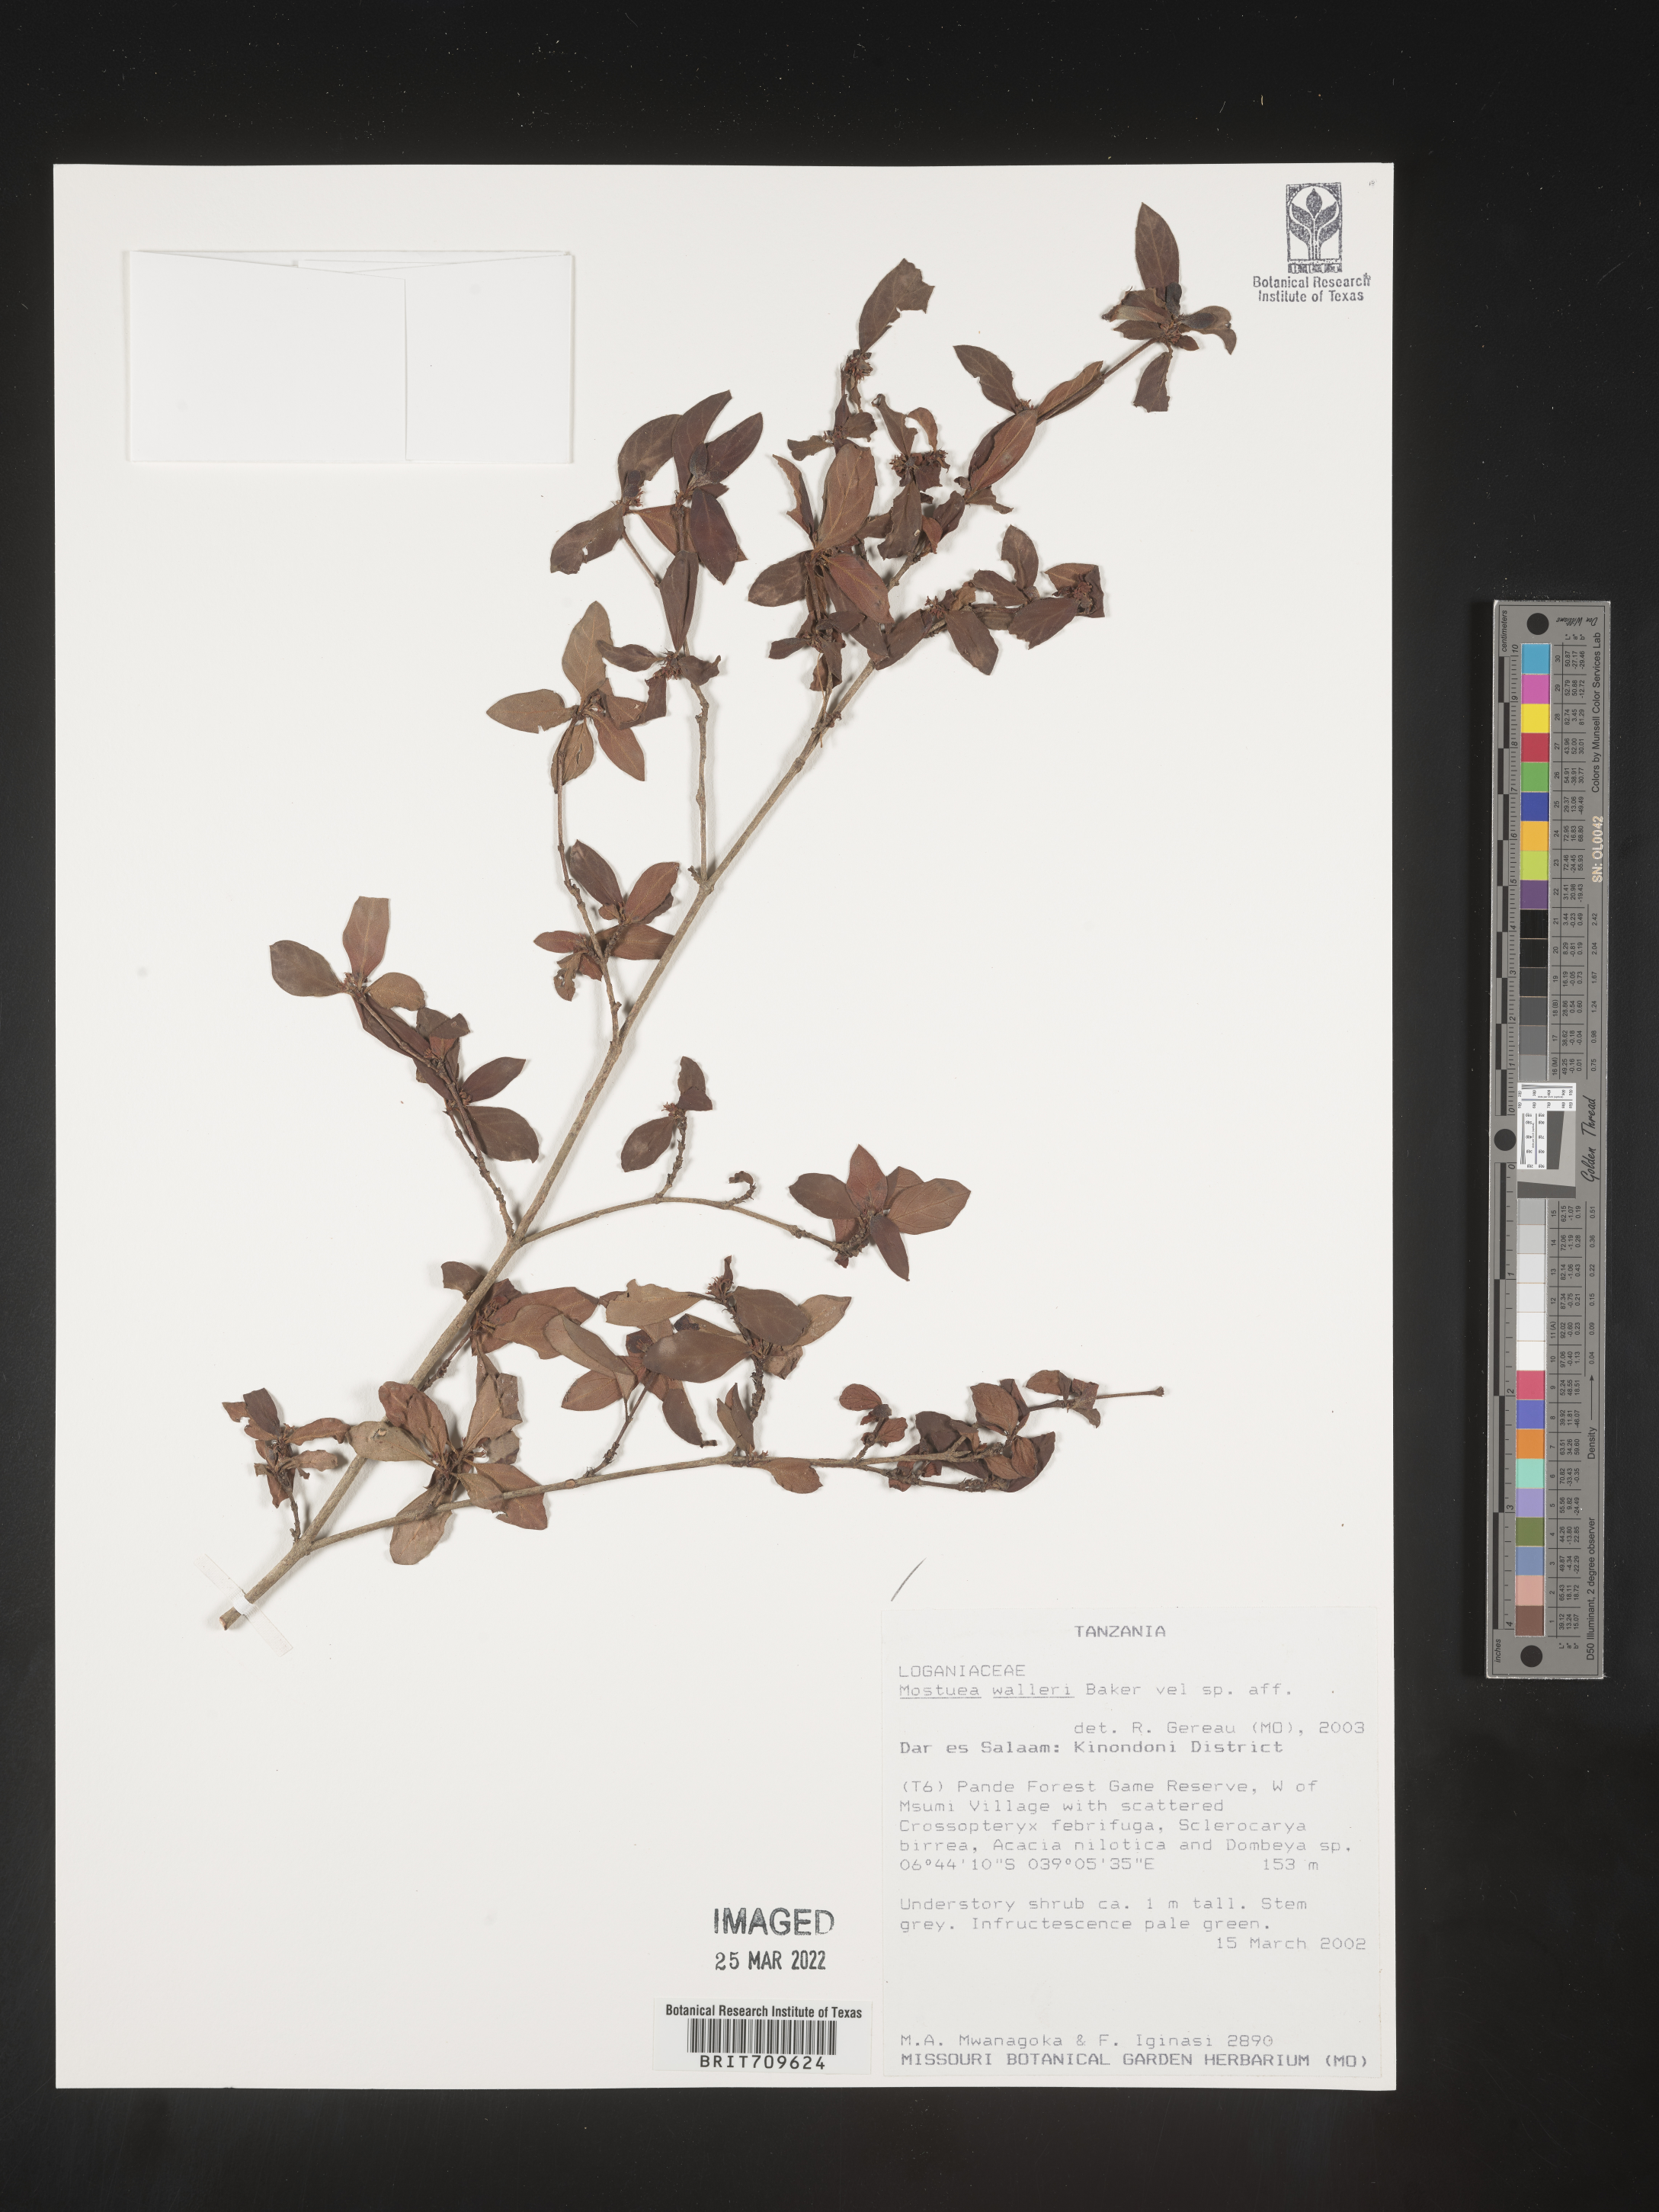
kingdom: Plantae
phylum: Tracheophyta
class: Magnoliopsida
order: Gentianales
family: Gelsemiaceae
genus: Mostuea
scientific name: Mostuea
